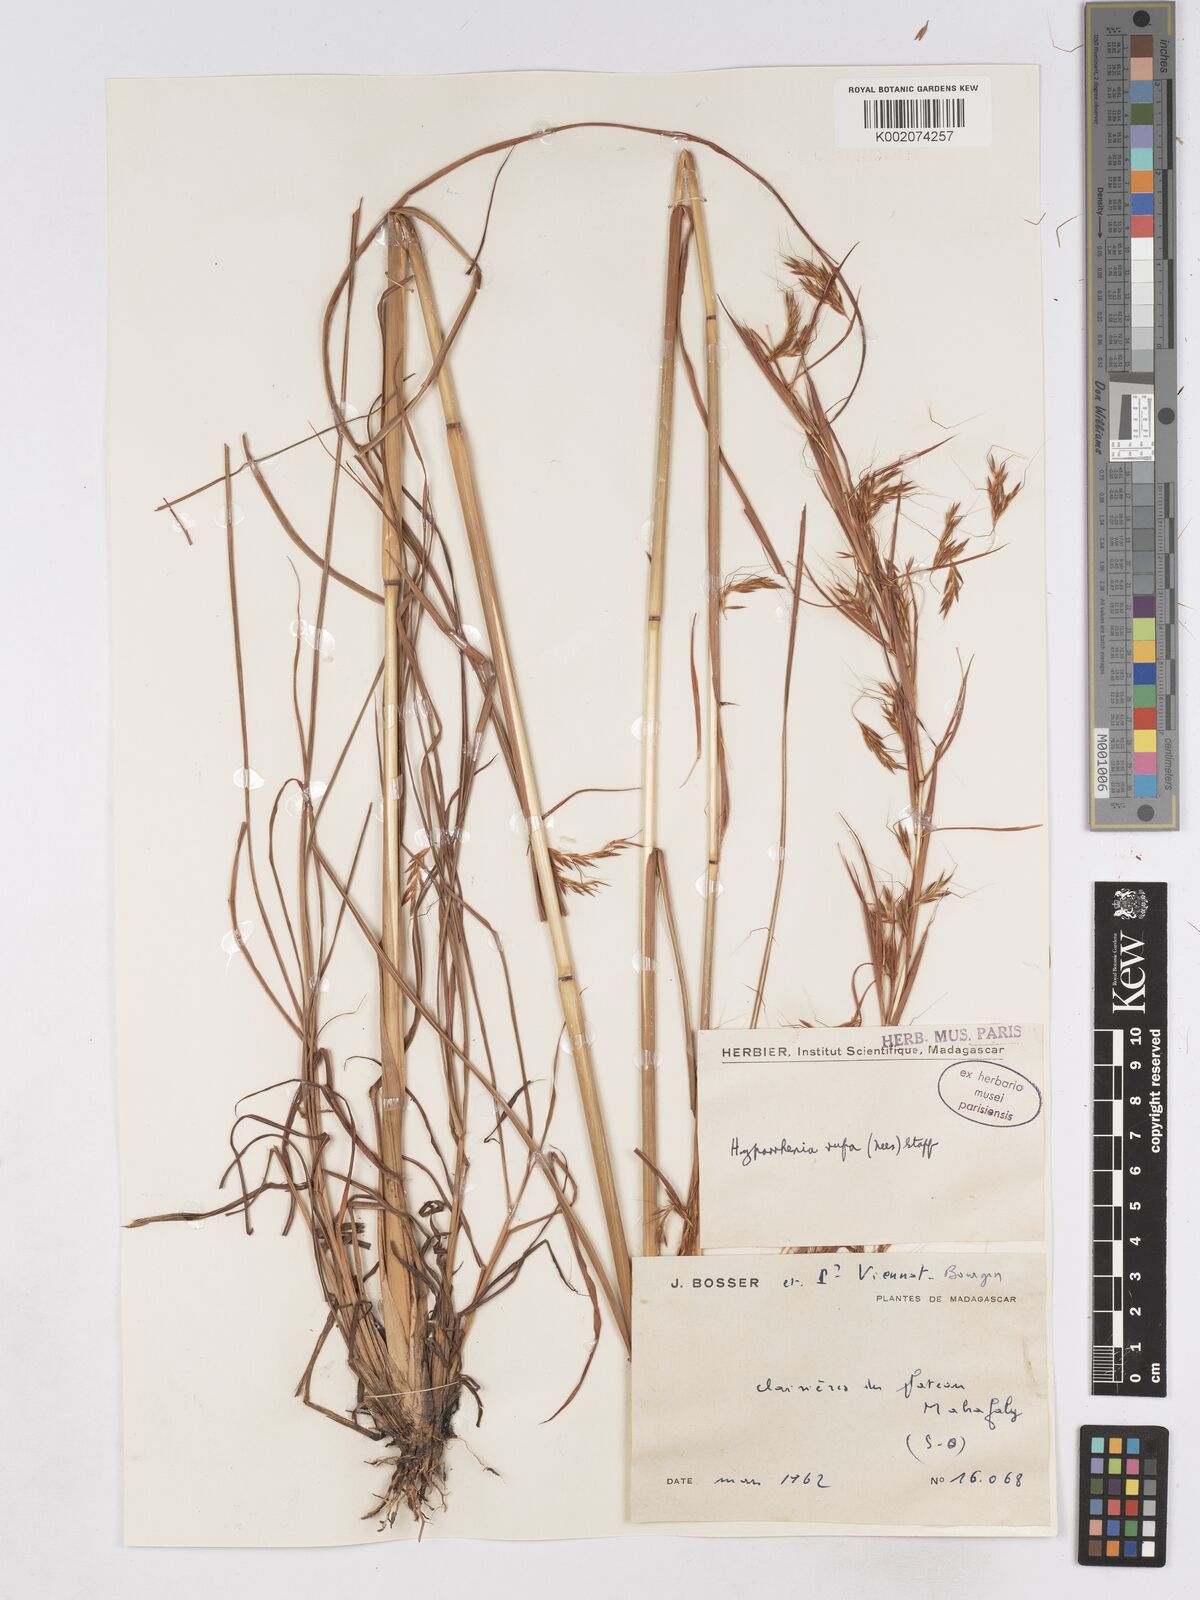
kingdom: Plantae
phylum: Tracheophyta
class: Liliopsida
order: Poales
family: Poaceae
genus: Hyparrhenia
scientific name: Hyparrhenia rufa
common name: Jaraguagrass
